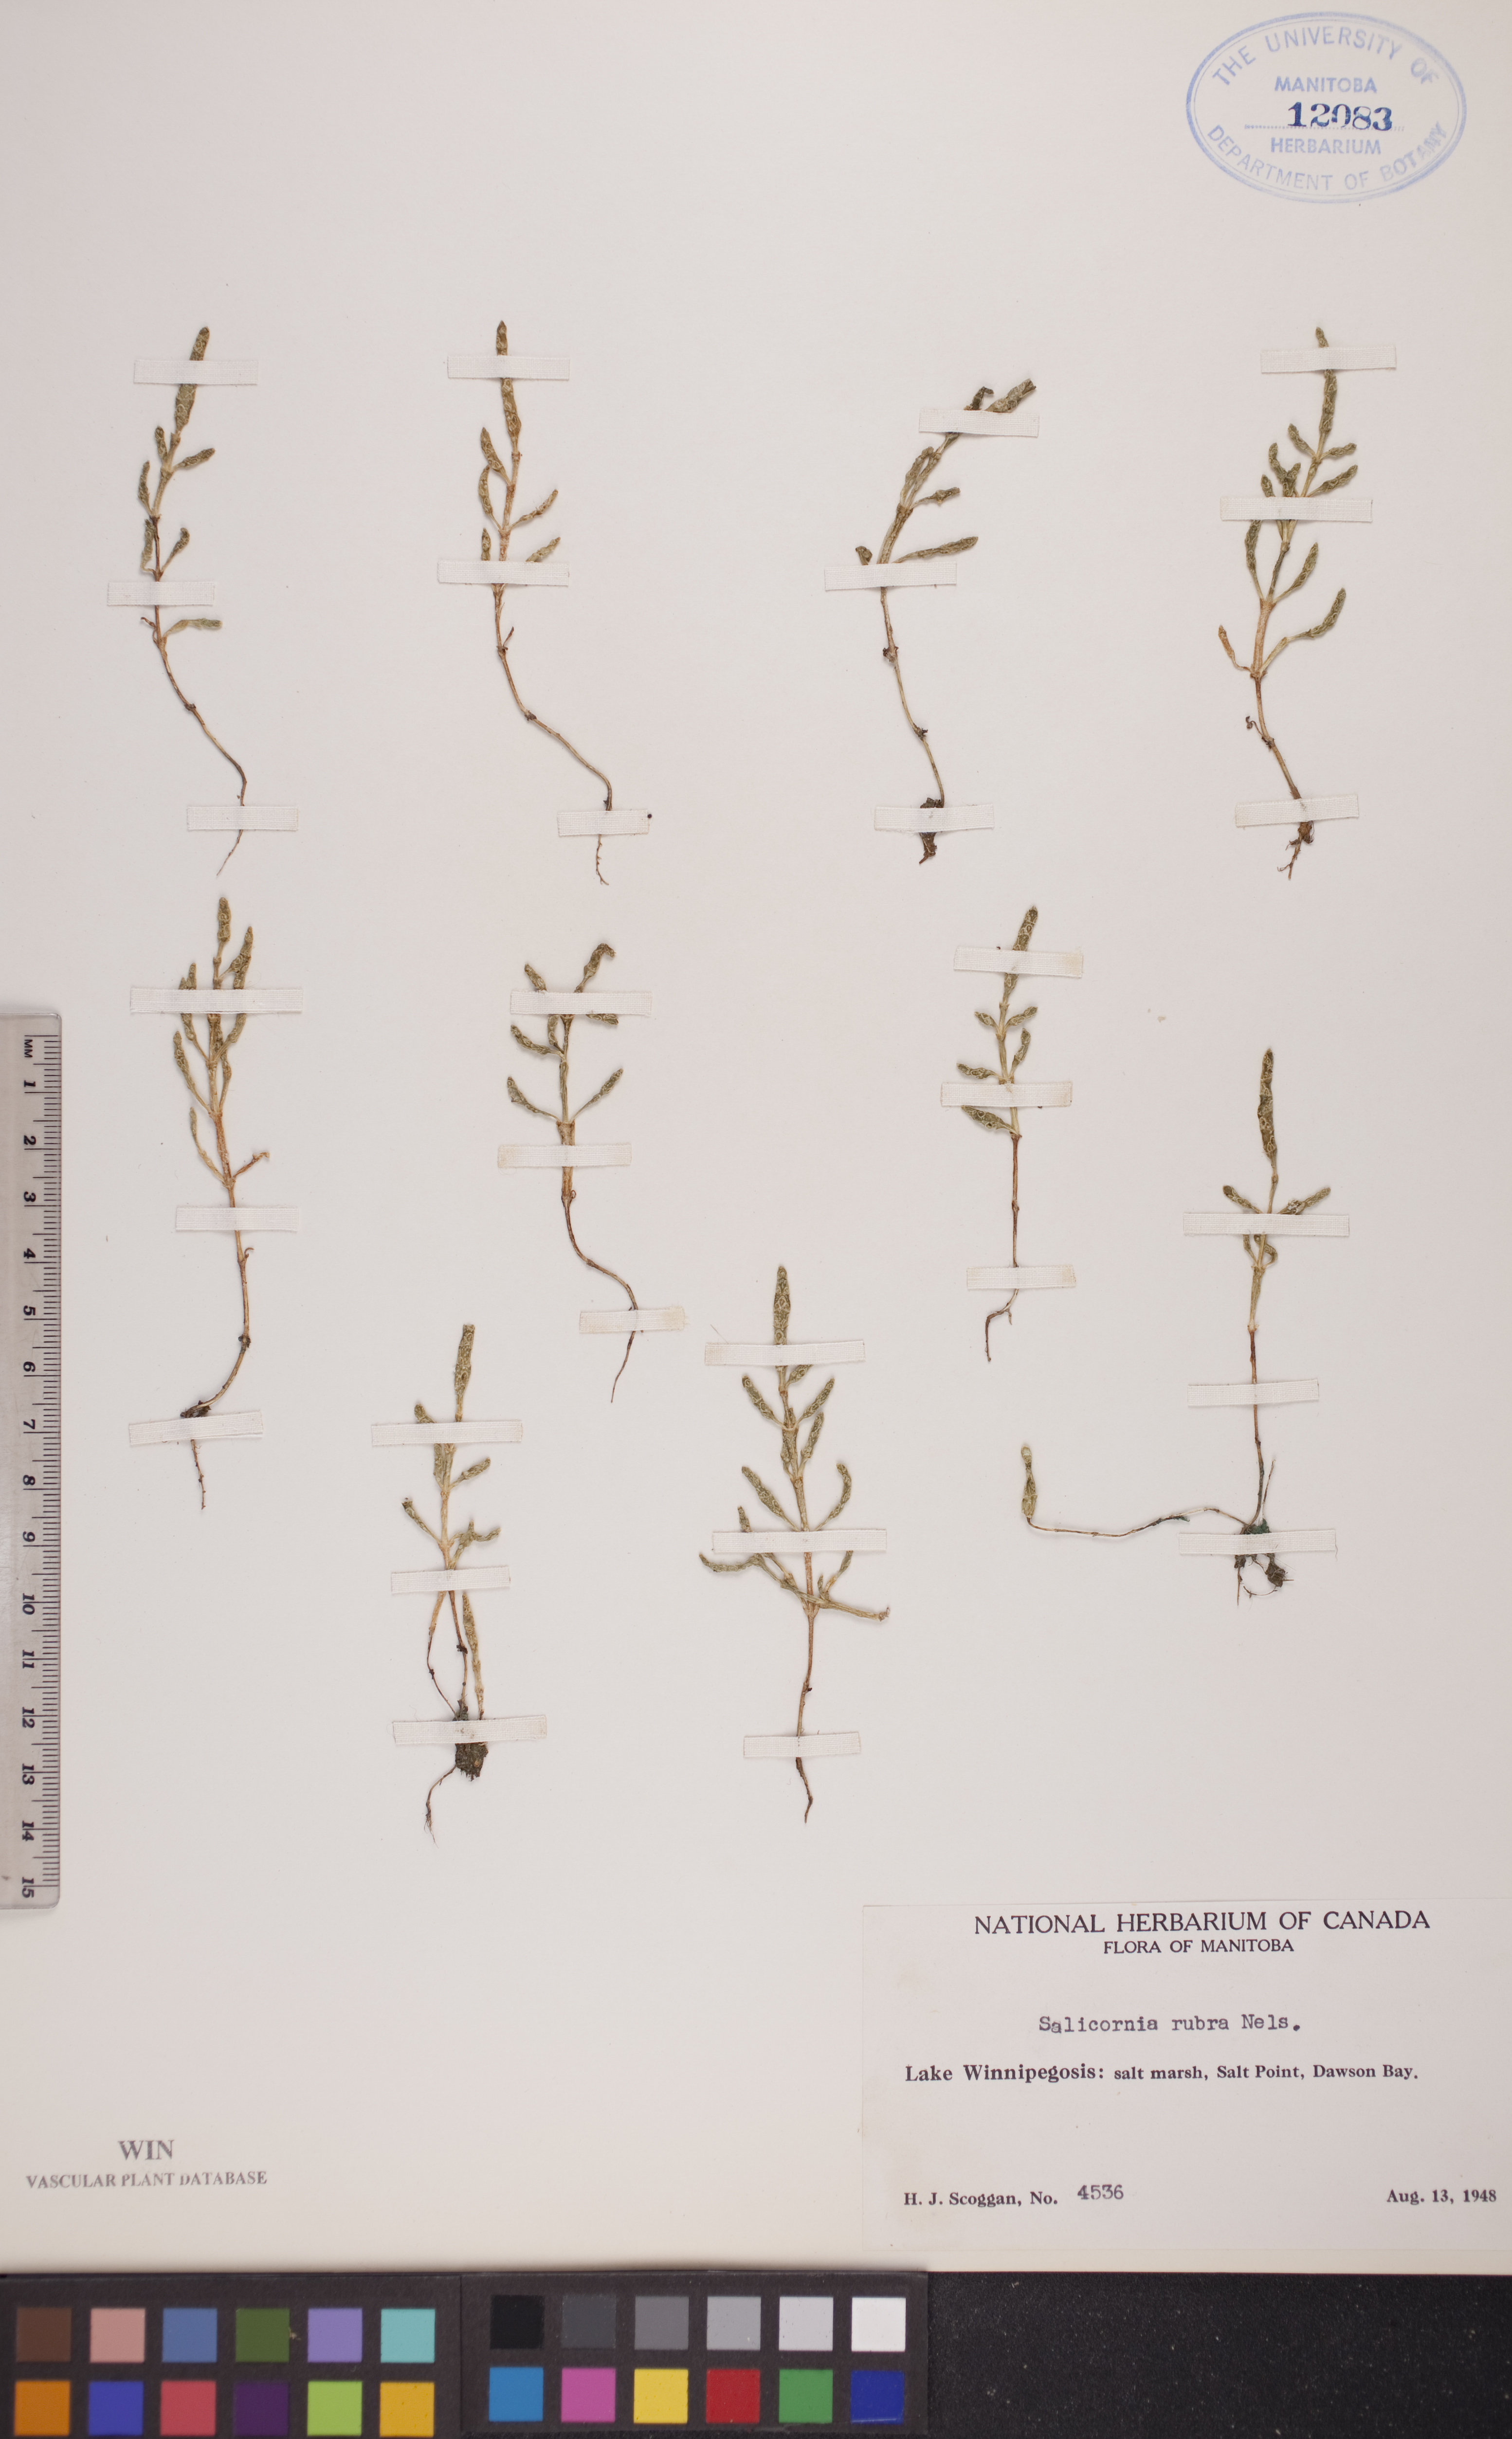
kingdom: Plantae
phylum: Tracheophyta
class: Magnoliopsida
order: Caryophyllales
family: Amaranthaceae
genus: Salicornia
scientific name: Salicornia rubra
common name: Red glasswort
